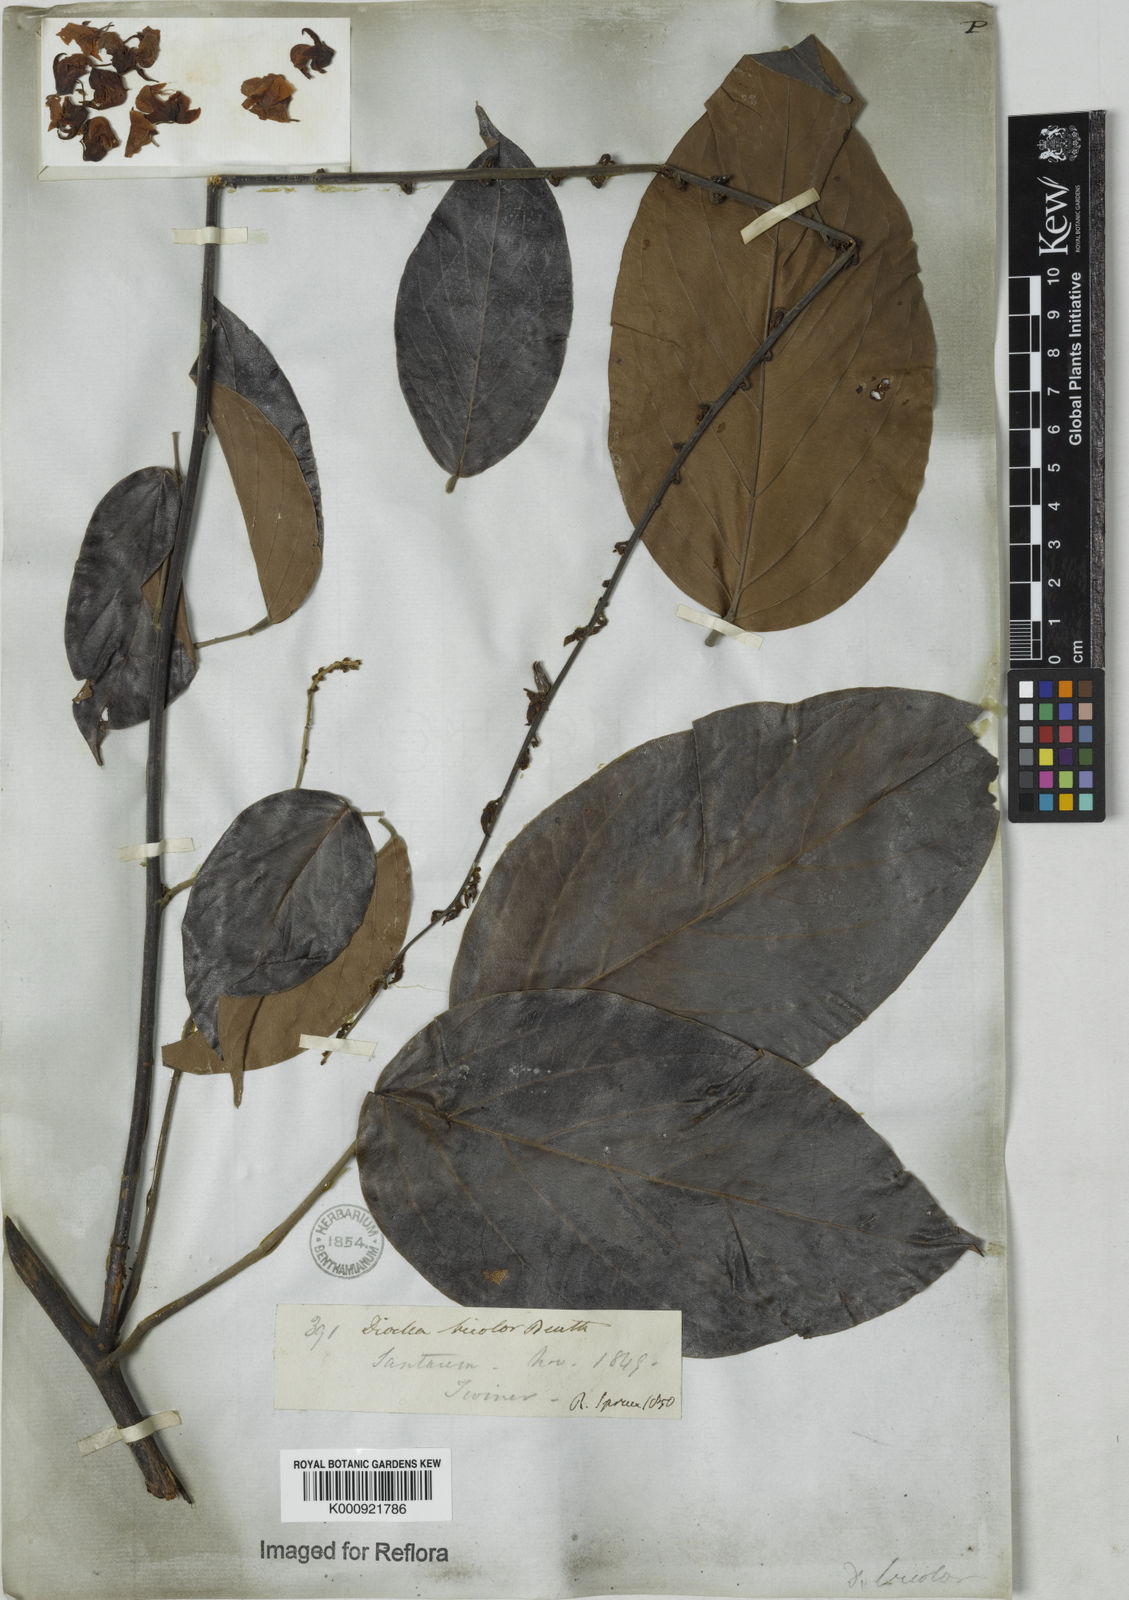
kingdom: Plantae
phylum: Tracheophyta
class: Magnoliopsida
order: Fabales
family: Fabaceae
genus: Macropsychanthus
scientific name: Macropsychanthus bicolor
